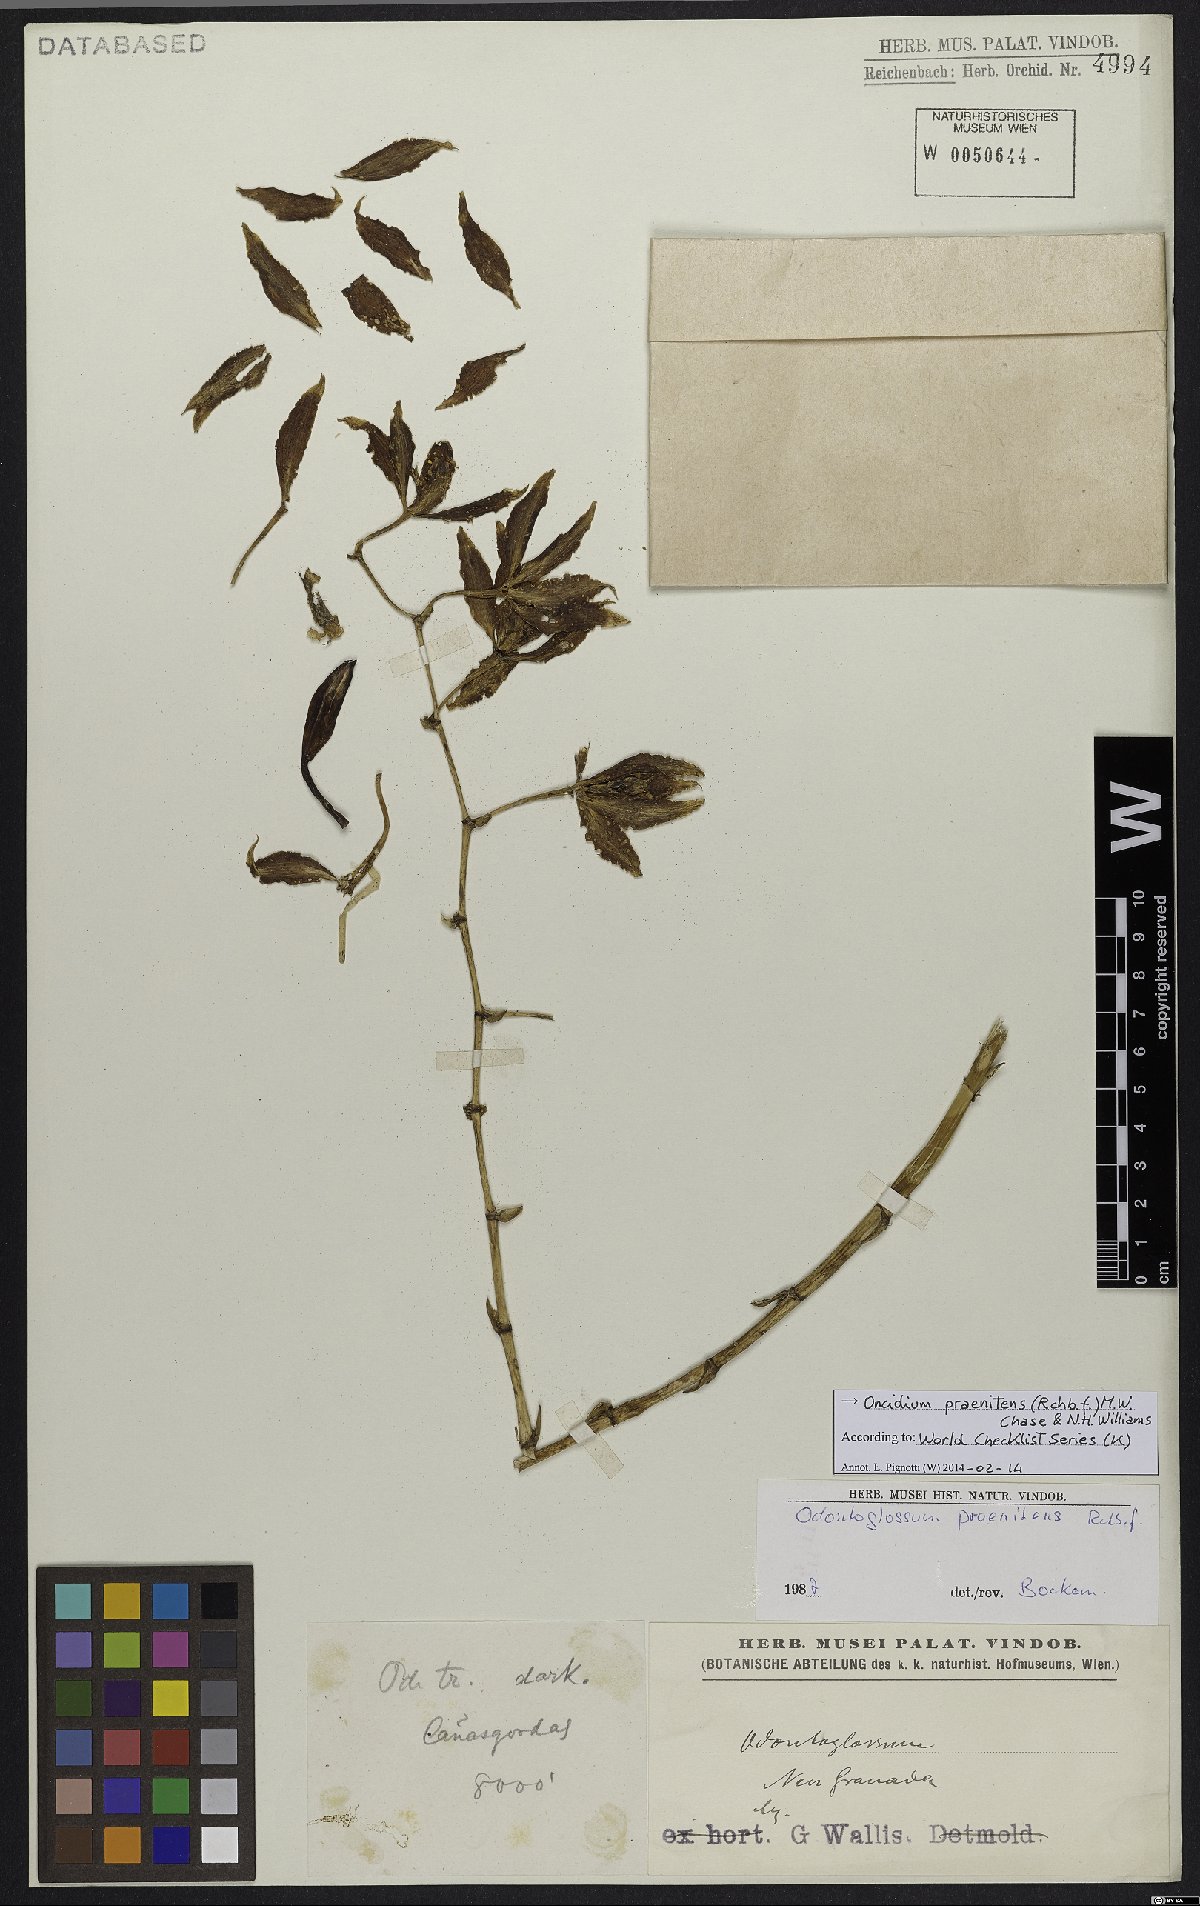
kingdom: Plantae
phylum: Tracheophyta
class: Liliopsida
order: Asparagales
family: Orchidaceae
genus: Oncidium
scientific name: Oncidium praenitens
